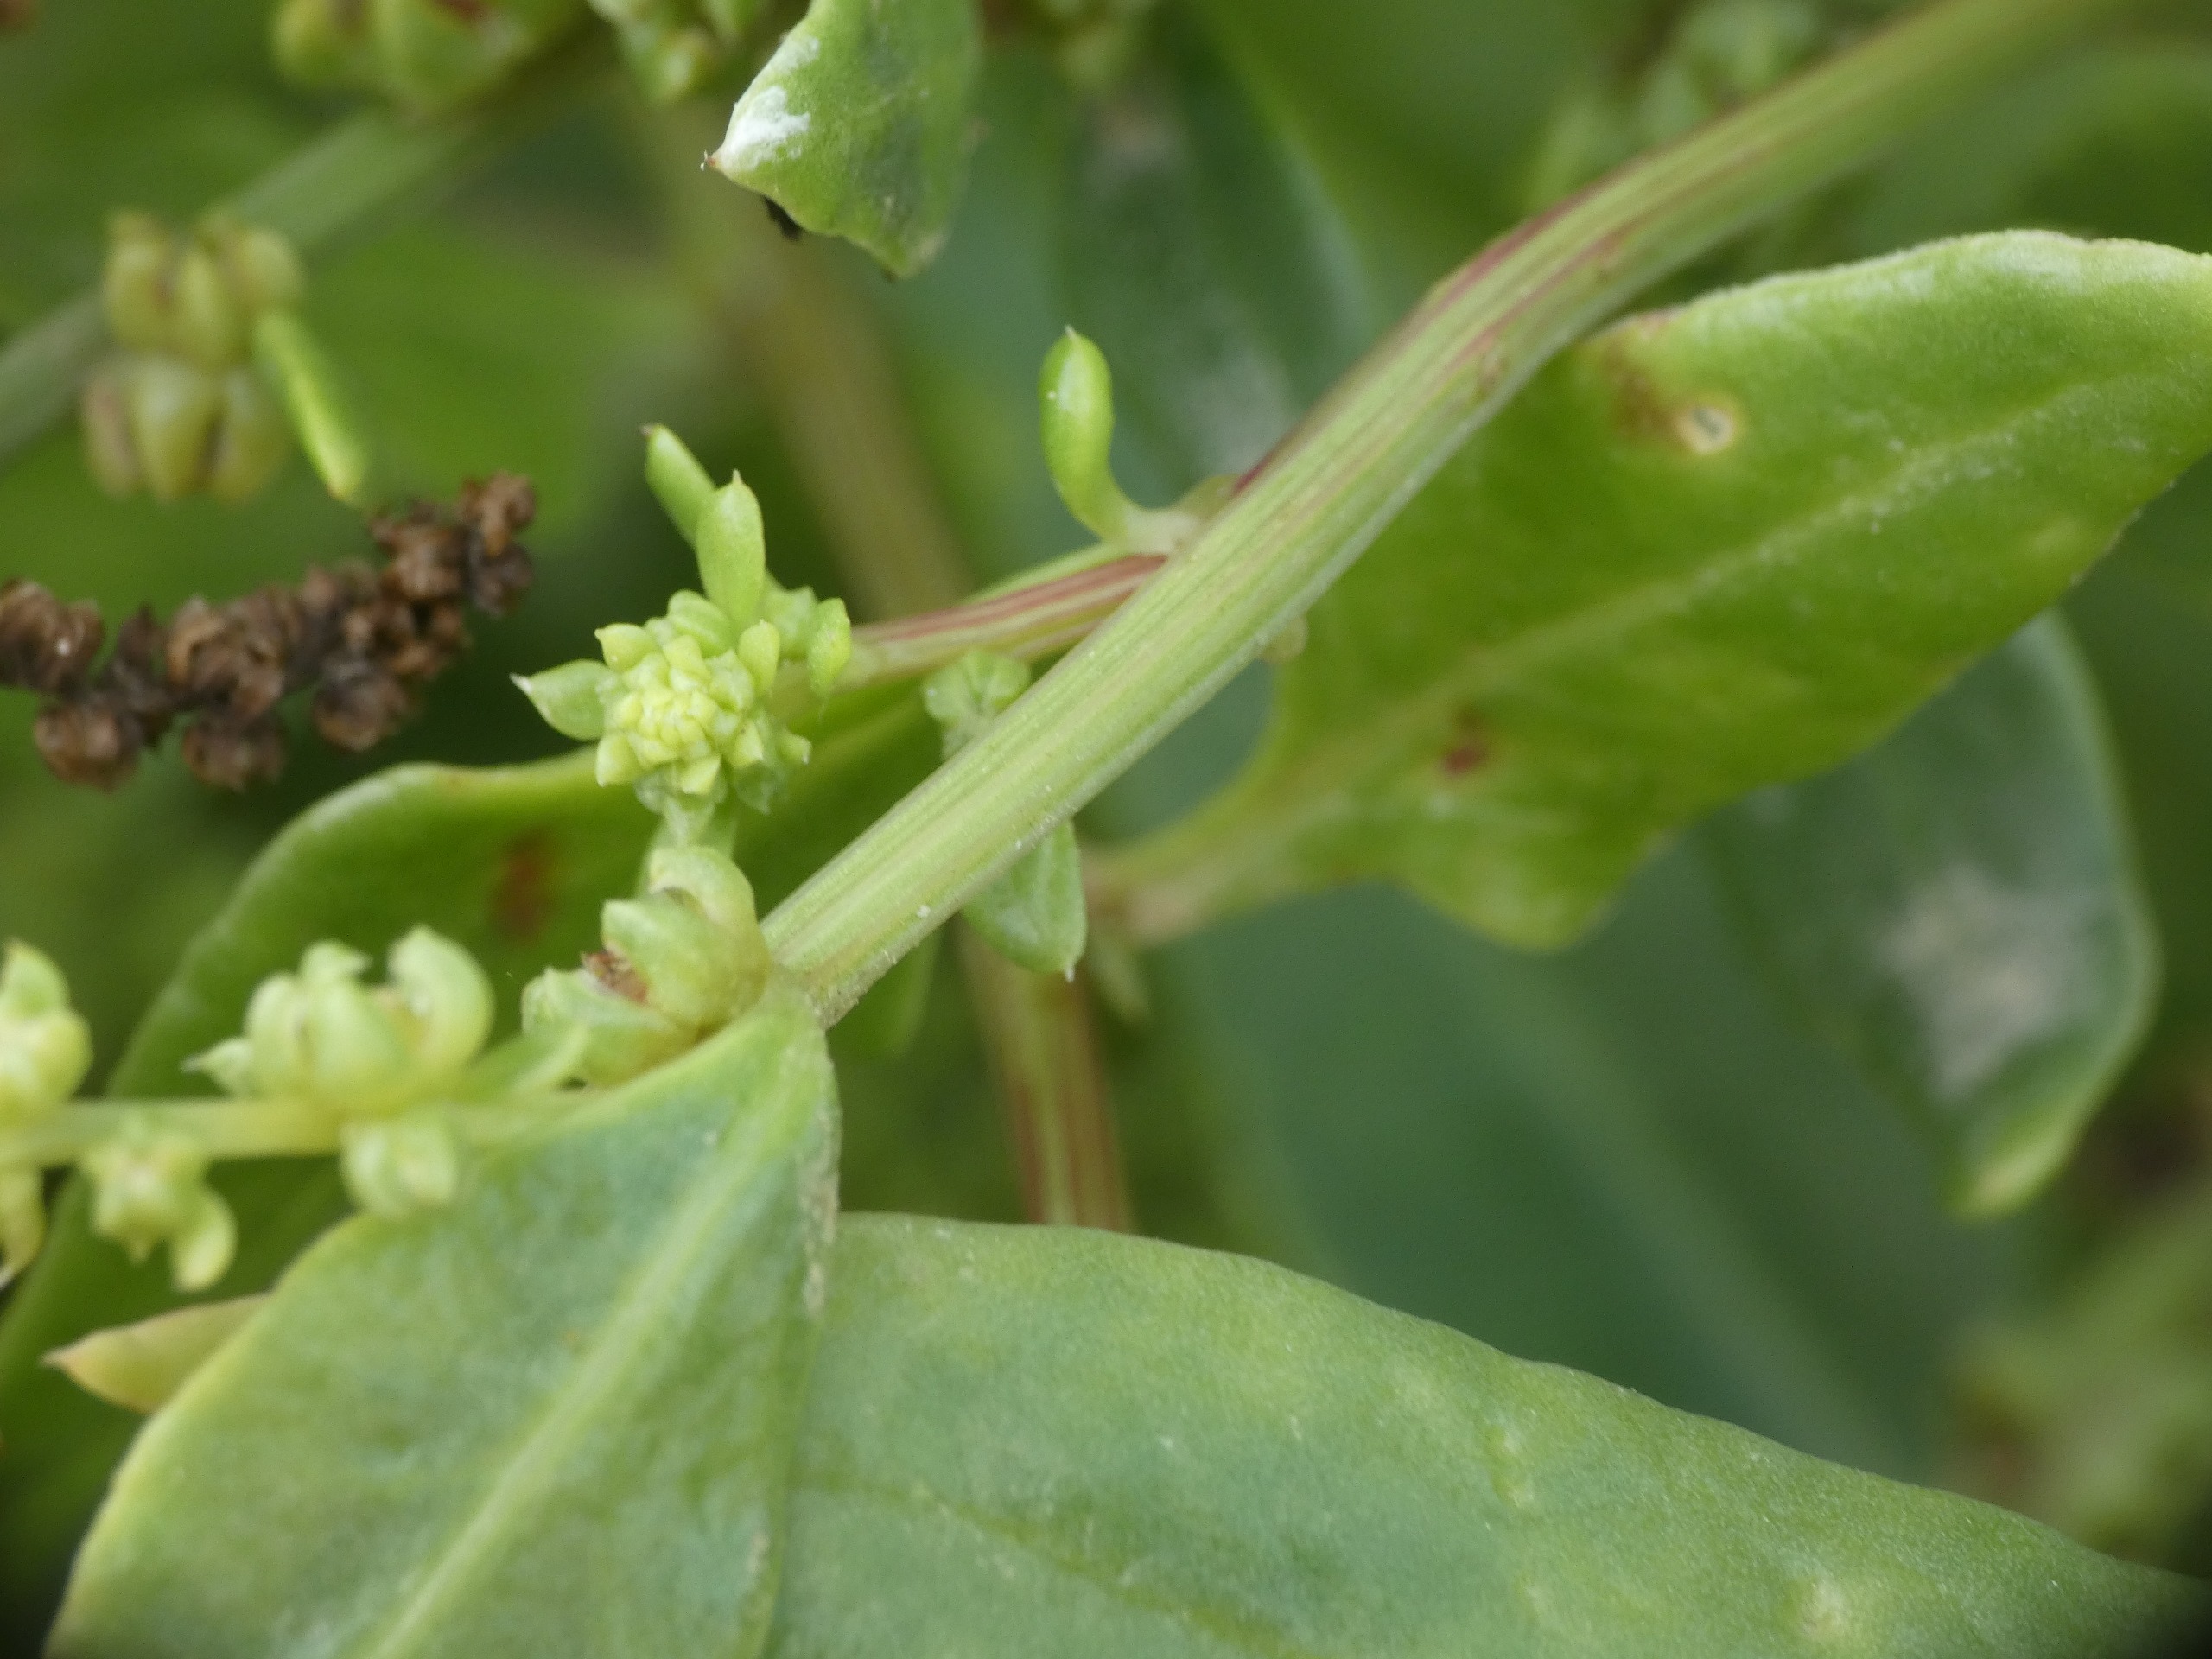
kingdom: Plantae
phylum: Tracheophyta
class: Magnoliopsida
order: Caryophyllales
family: Amaranthaceae
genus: Beta
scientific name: Beta maritima
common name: Strand-bede
